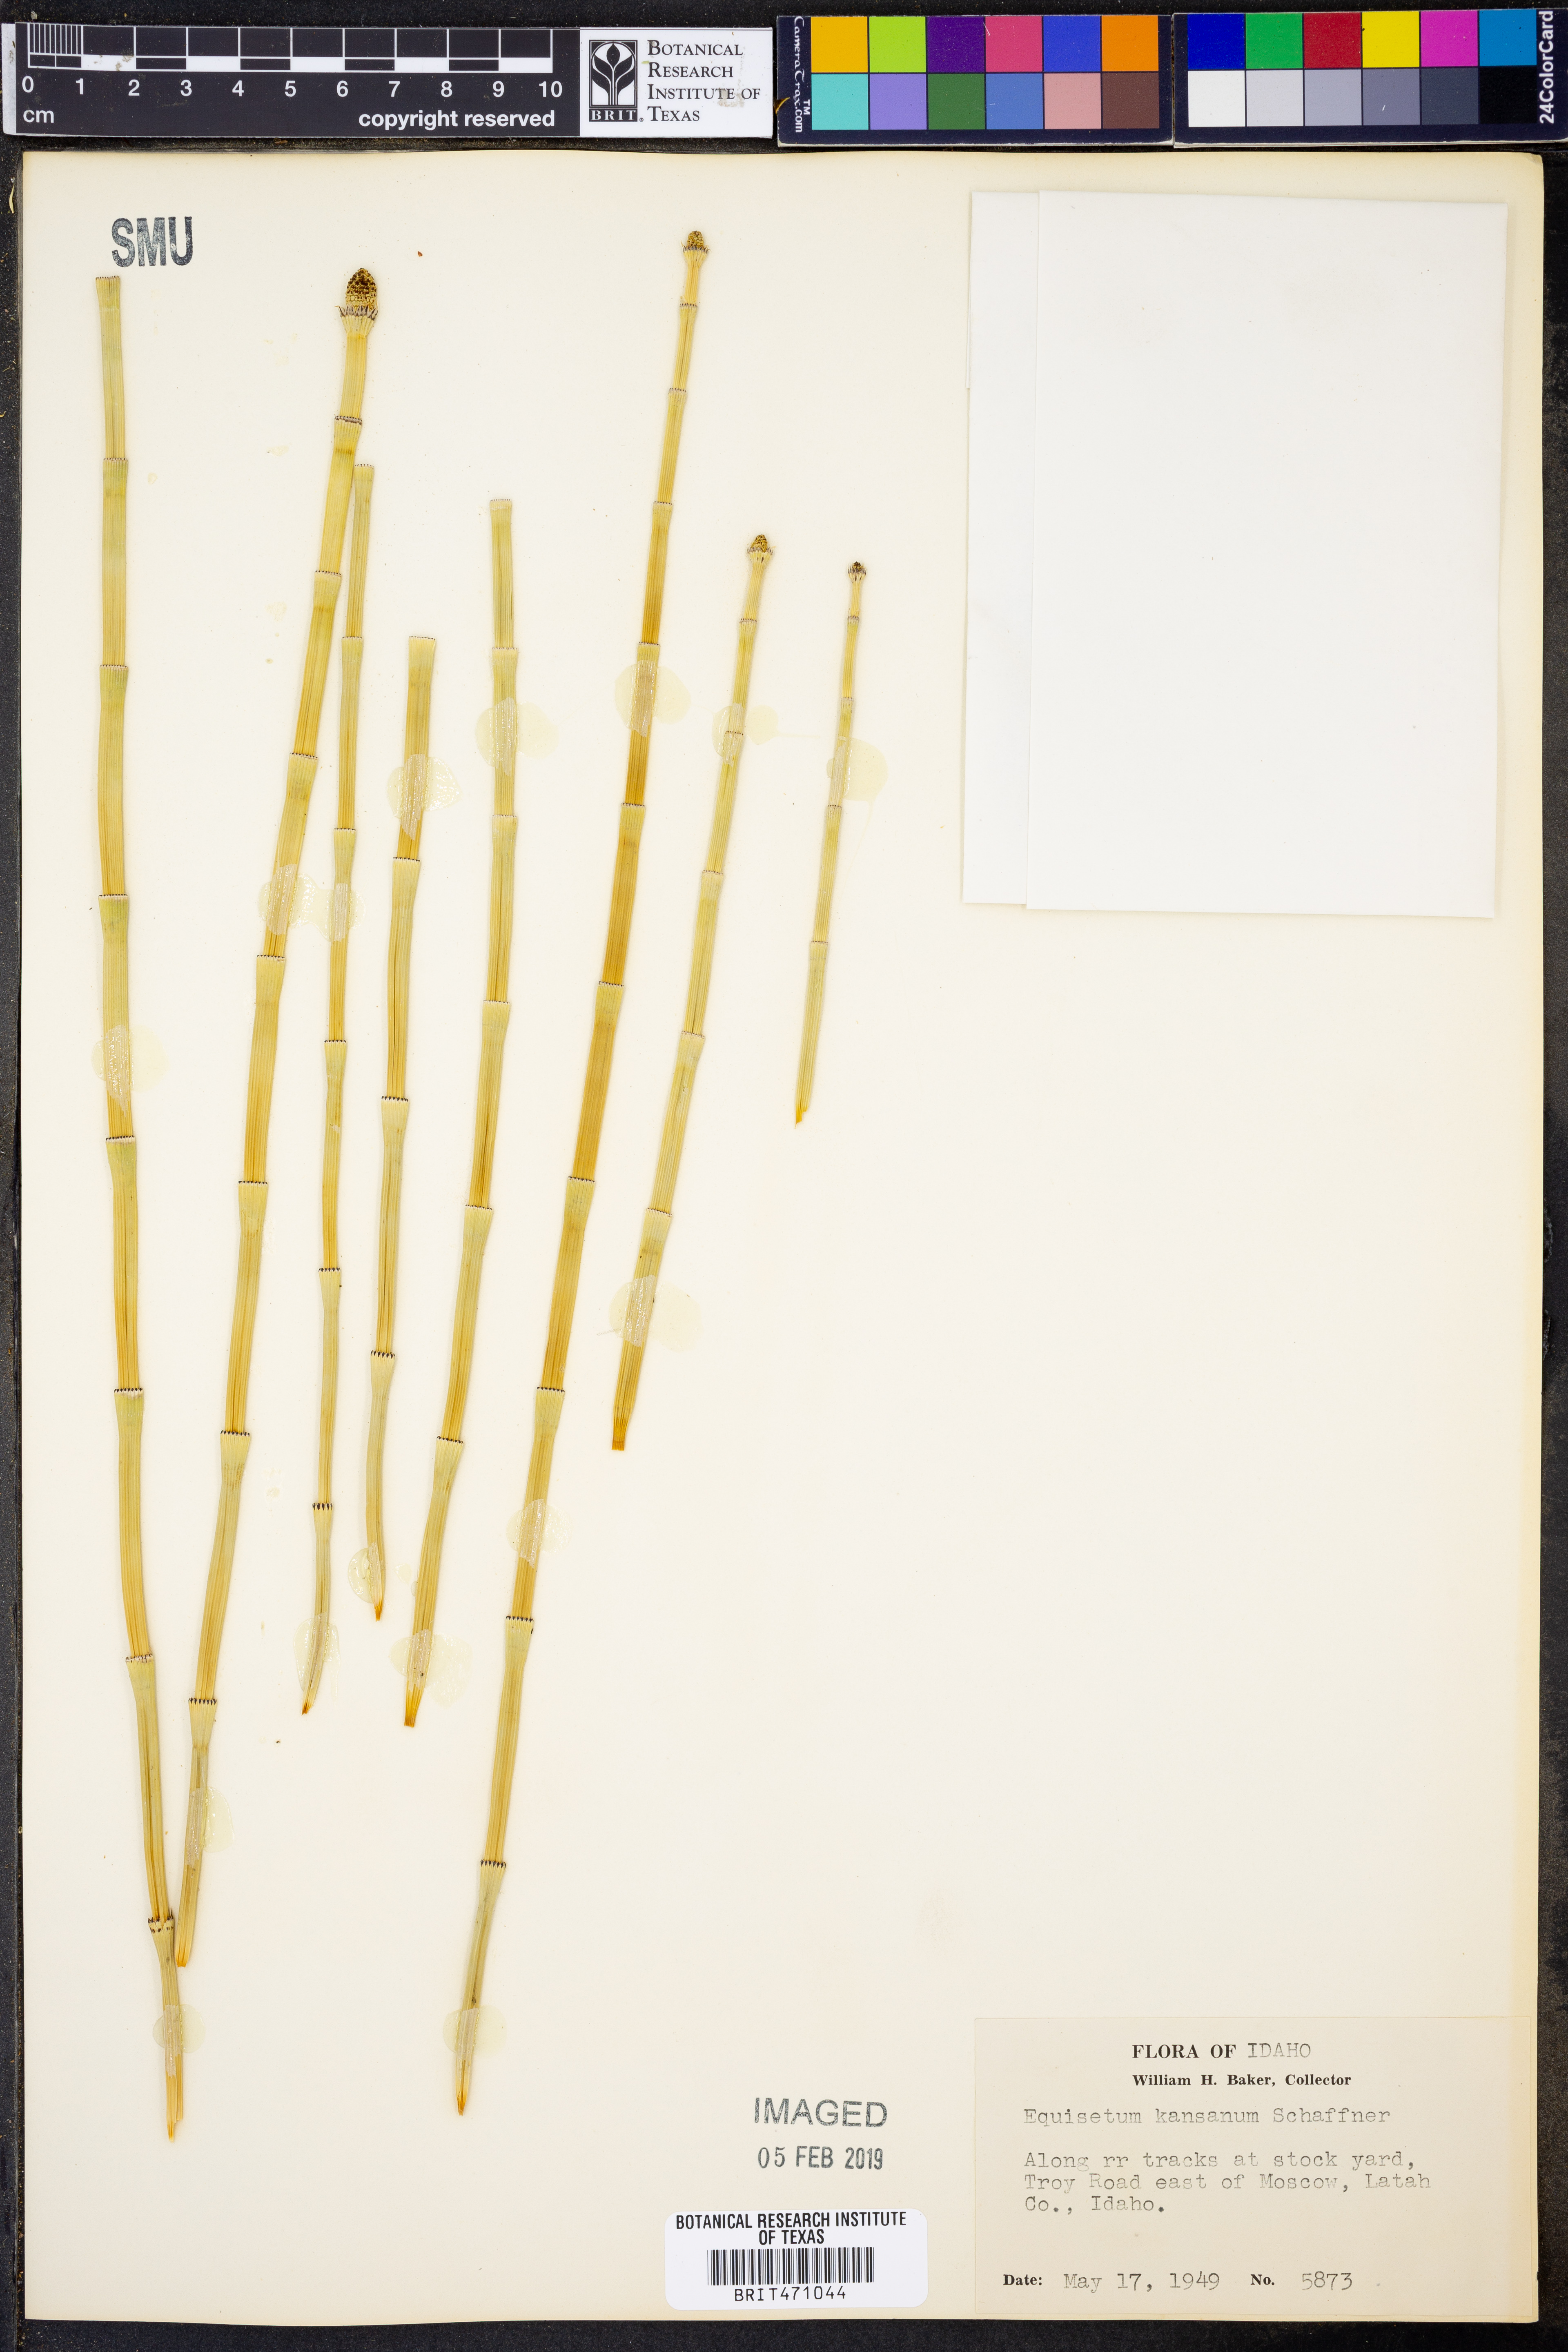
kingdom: Plantae
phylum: Tracheophyta
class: Polypodiopsida
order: Equisetales
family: Equisetaceae
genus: Equisetum
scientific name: Equisetum laevigatum
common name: Smooth scouring-rush
